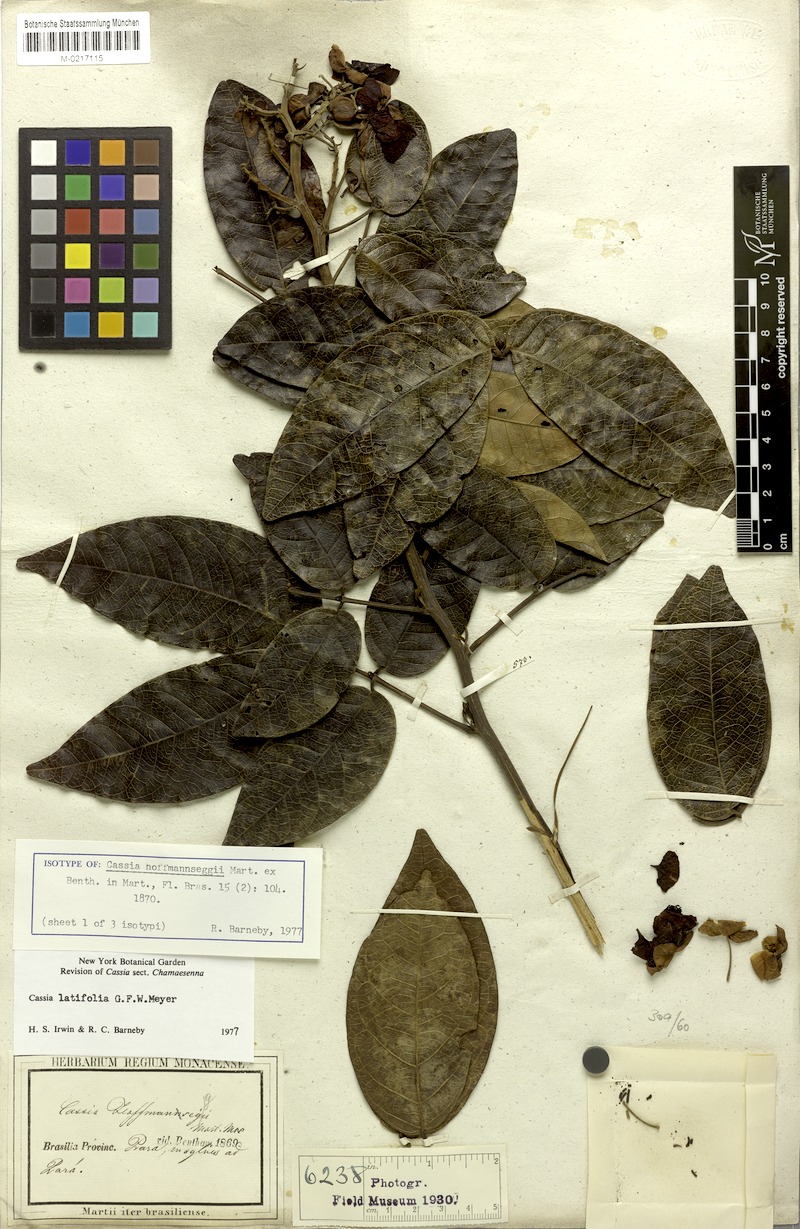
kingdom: Plantae
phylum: Tracheophyta
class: Magnoliopsida
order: Fabales
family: Fabaceae
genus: Senna
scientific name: Senna latifolia
